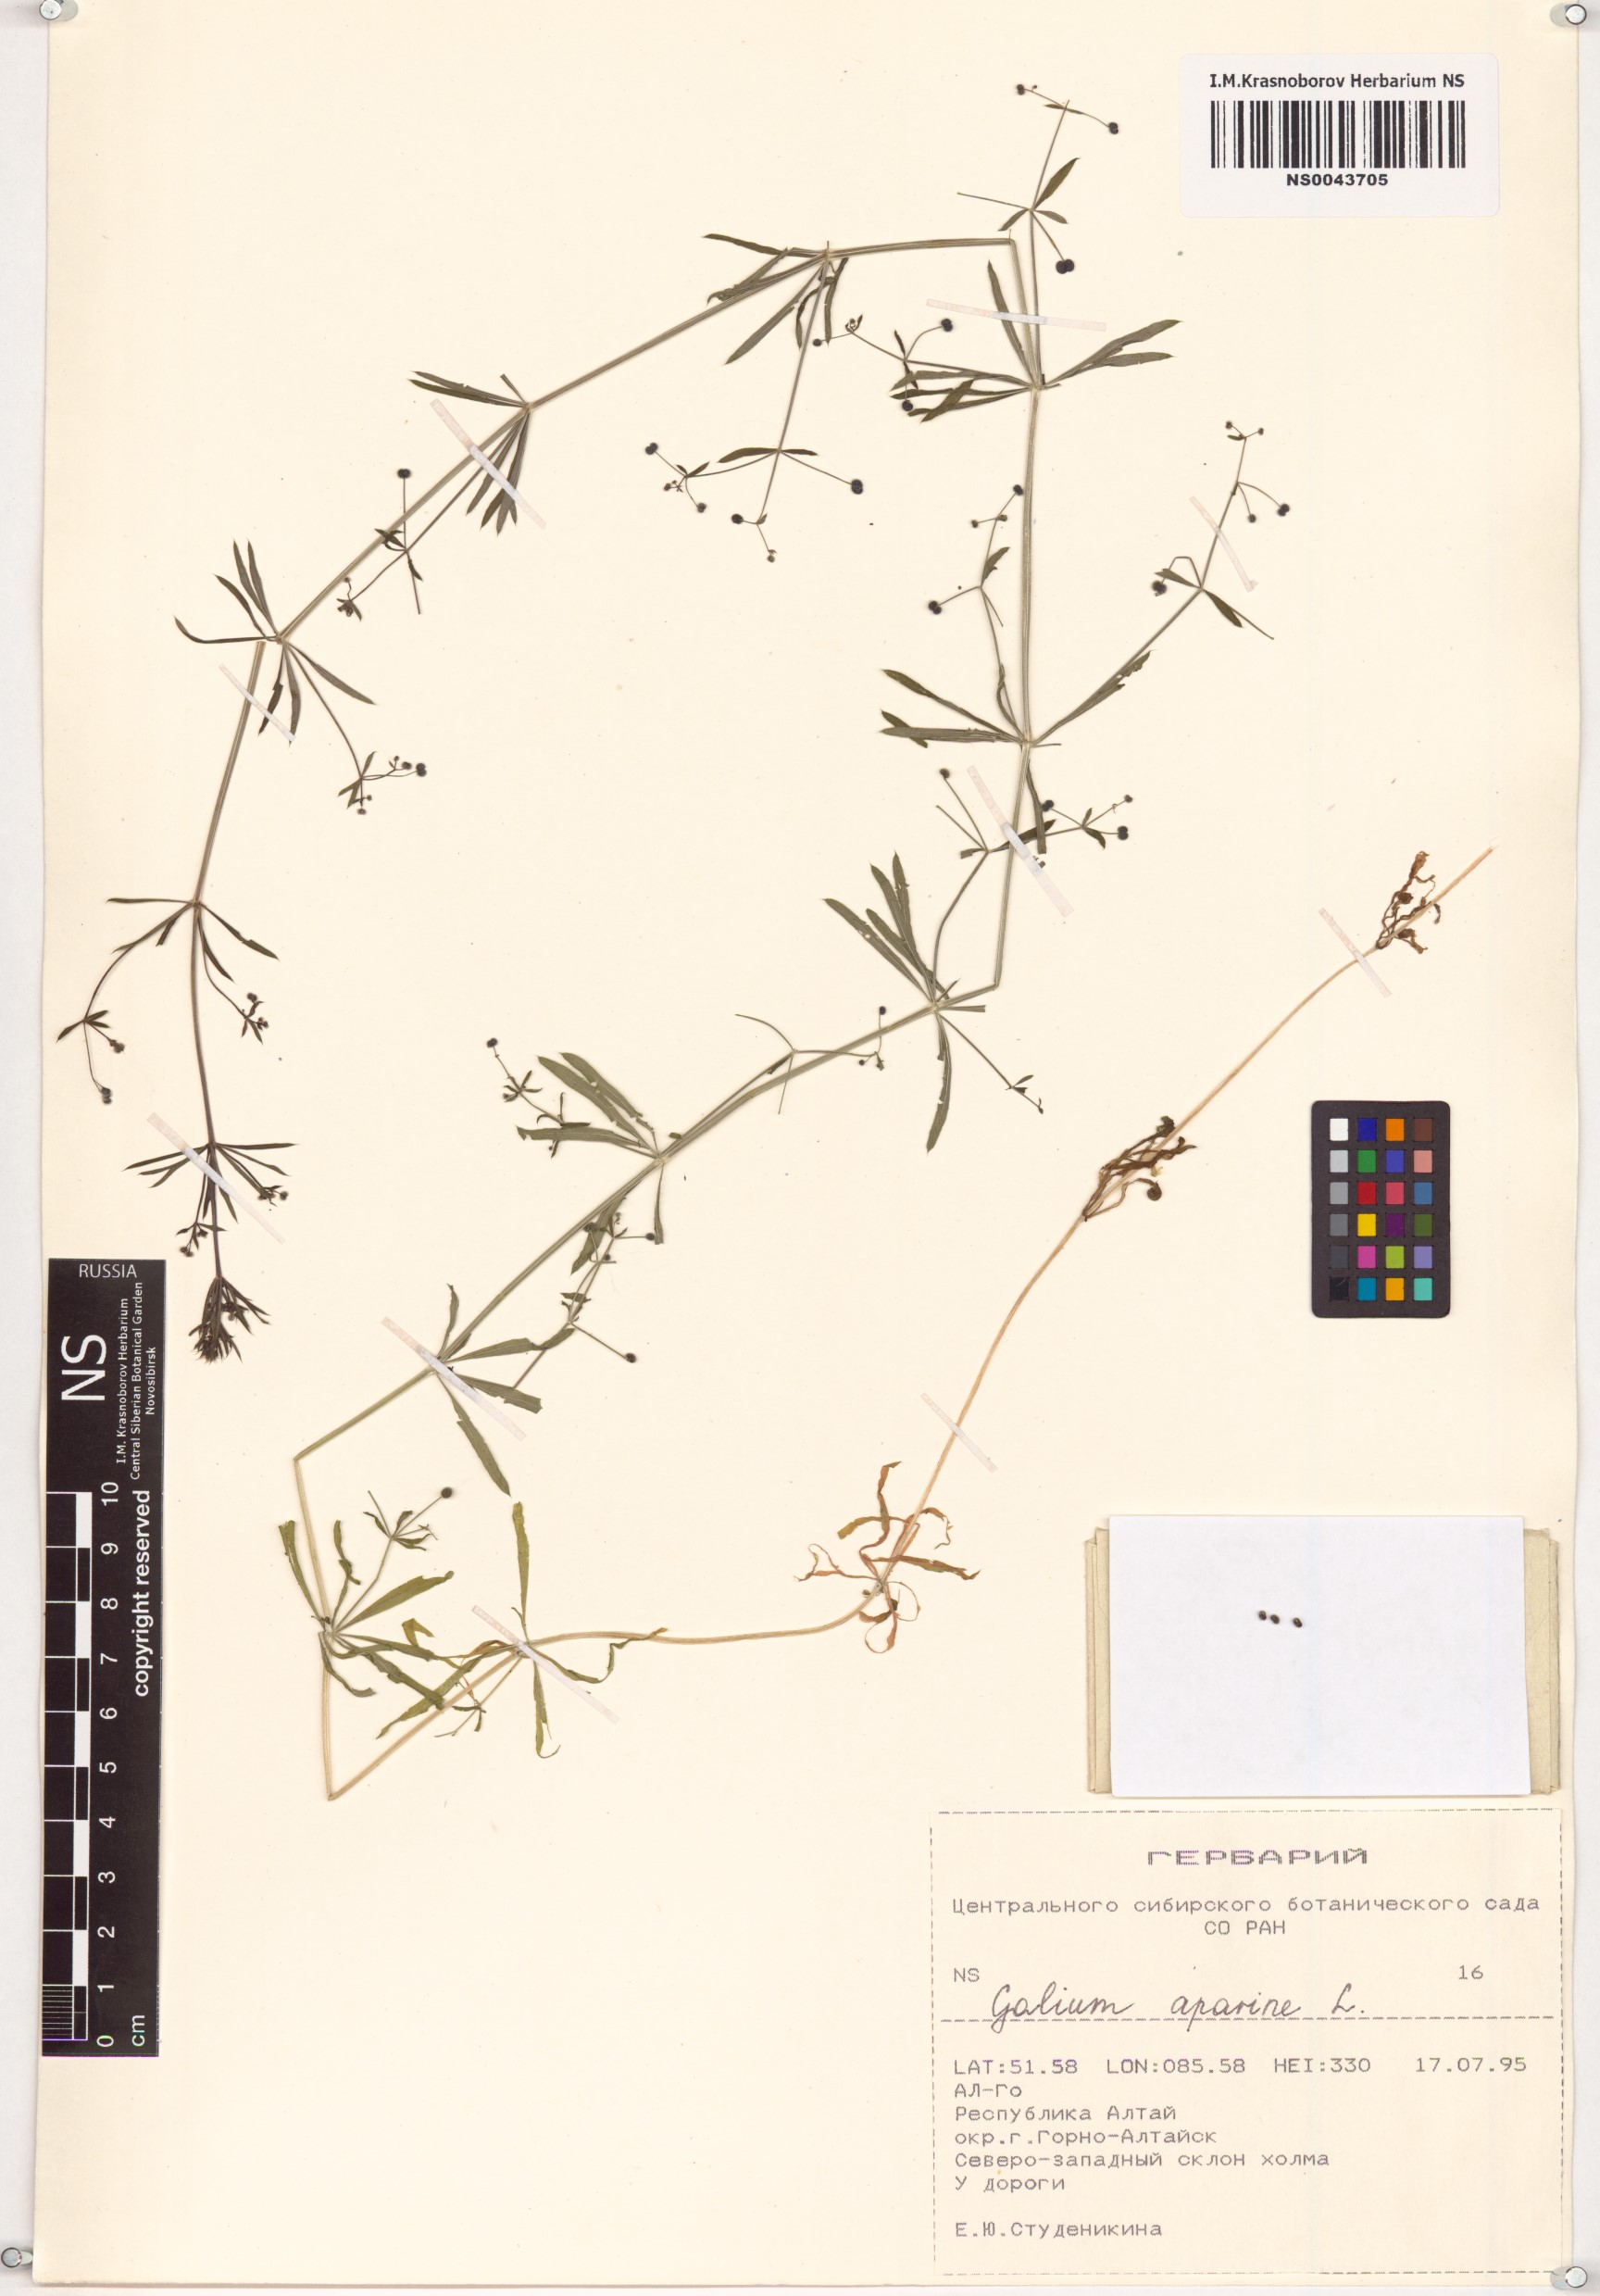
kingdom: Plantae
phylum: Tracheophyta
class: Magnoliopsida
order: Gentianales
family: Rubiaceae
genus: Galium
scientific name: Galium aparine
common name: Cleavers
